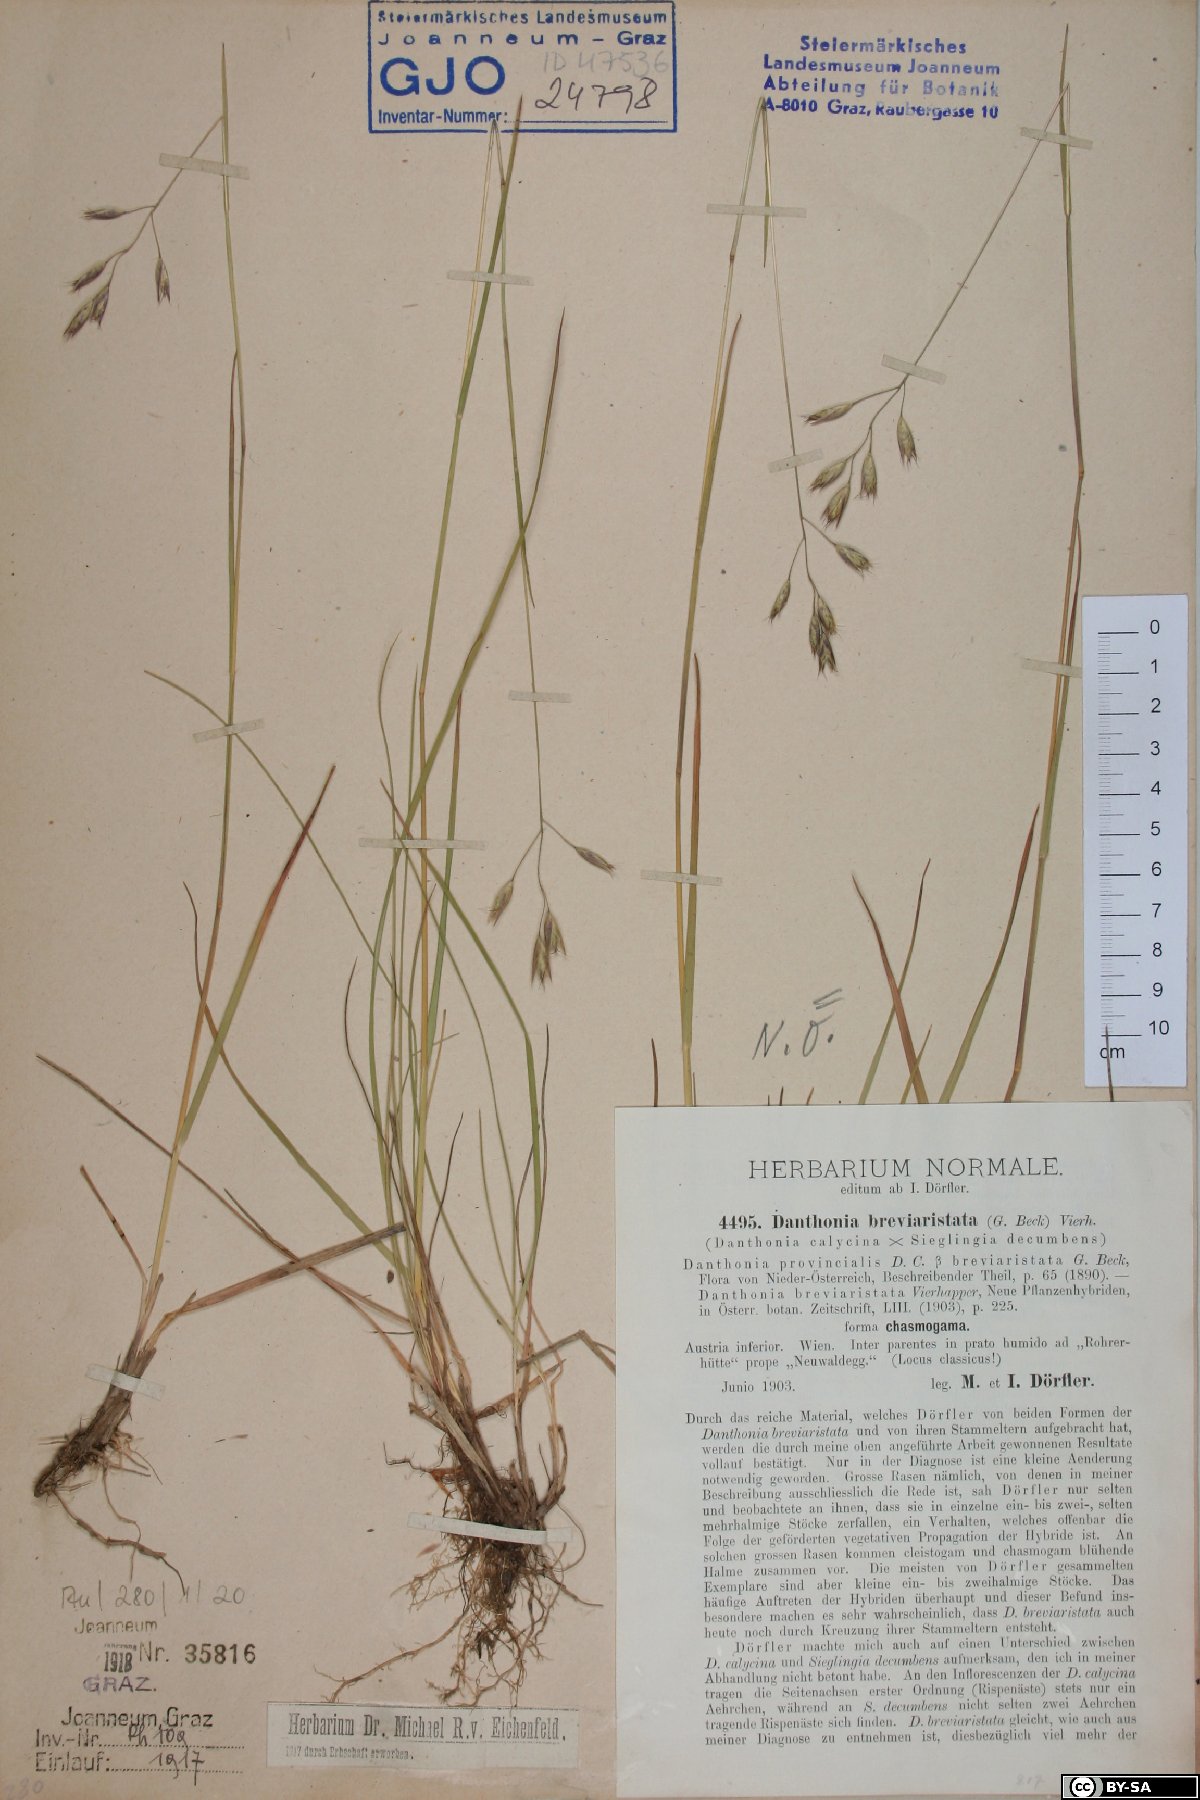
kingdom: Plantae
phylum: Tracheophyta
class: Liliopsida
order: Poales
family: Poaceae
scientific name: Poaceae
